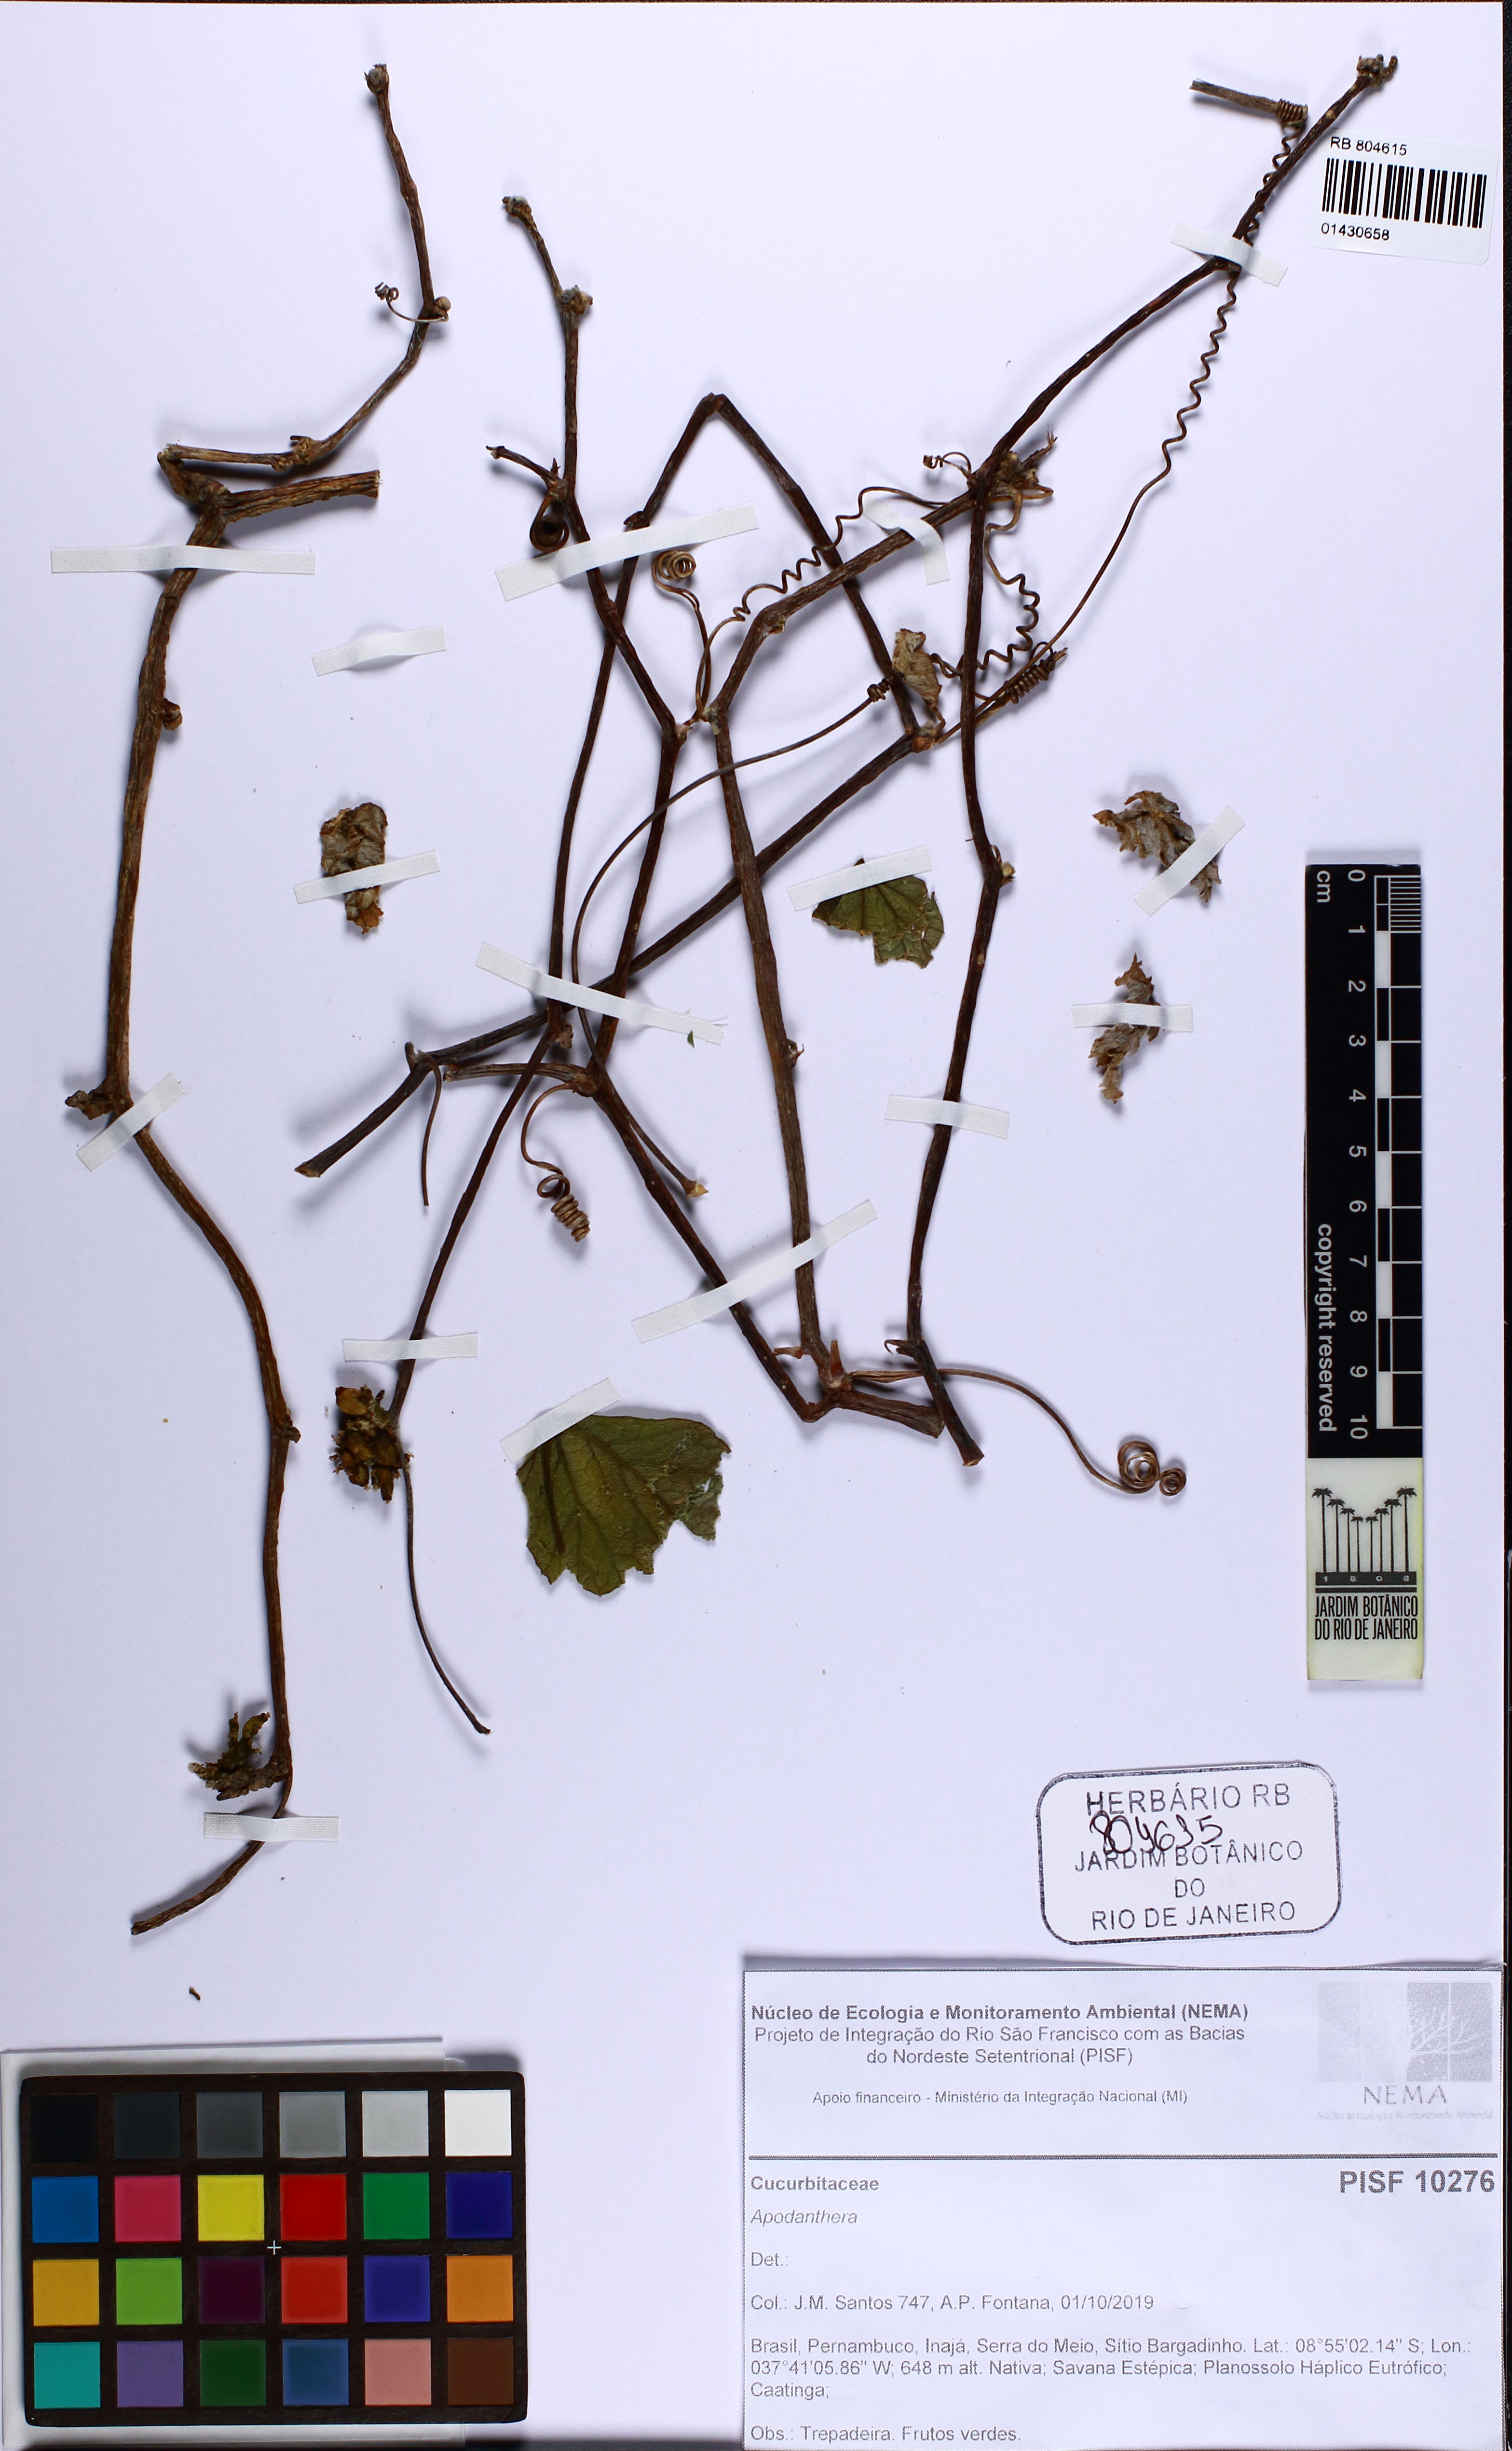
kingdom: Plantae
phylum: Tracheophyta
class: Magnoliopsida
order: Cucurbitales
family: Cucurbitaceae
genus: Apodanthera
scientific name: Apodanthera
